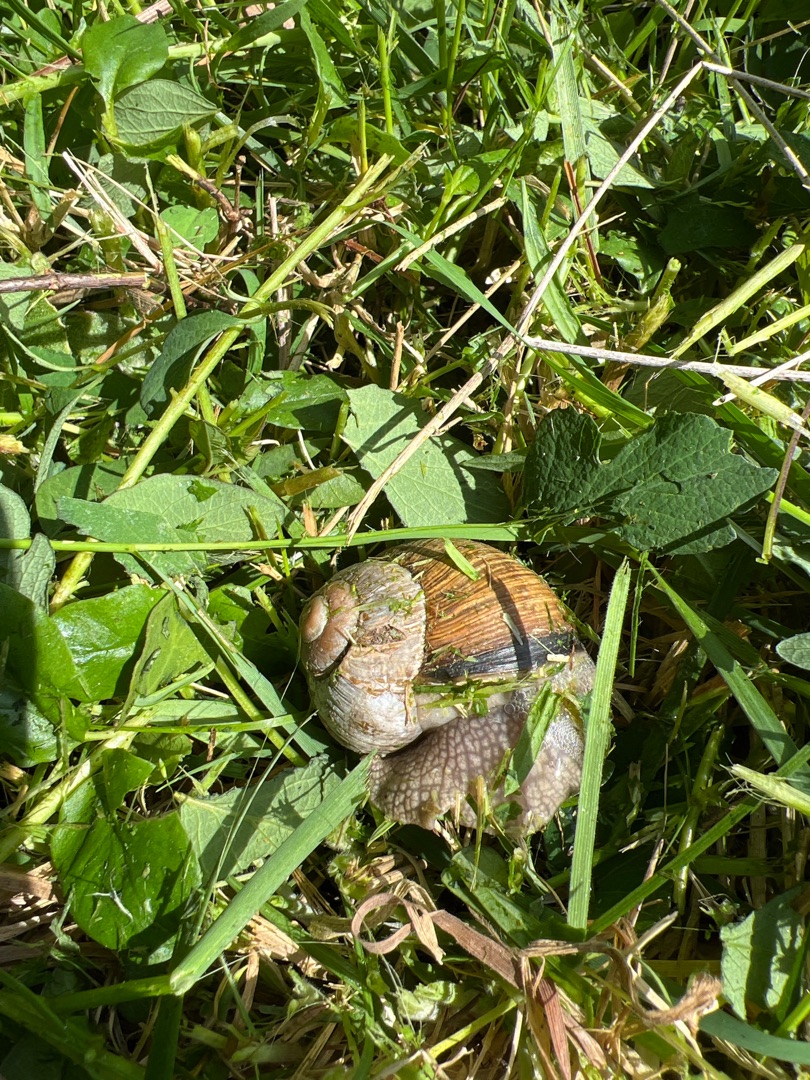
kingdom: Animalia
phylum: Mollusca
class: Gastropoda
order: Stylommatophora
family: Helicidae
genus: Helix
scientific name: Helix pomatia
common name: Vinbjergsnegl
